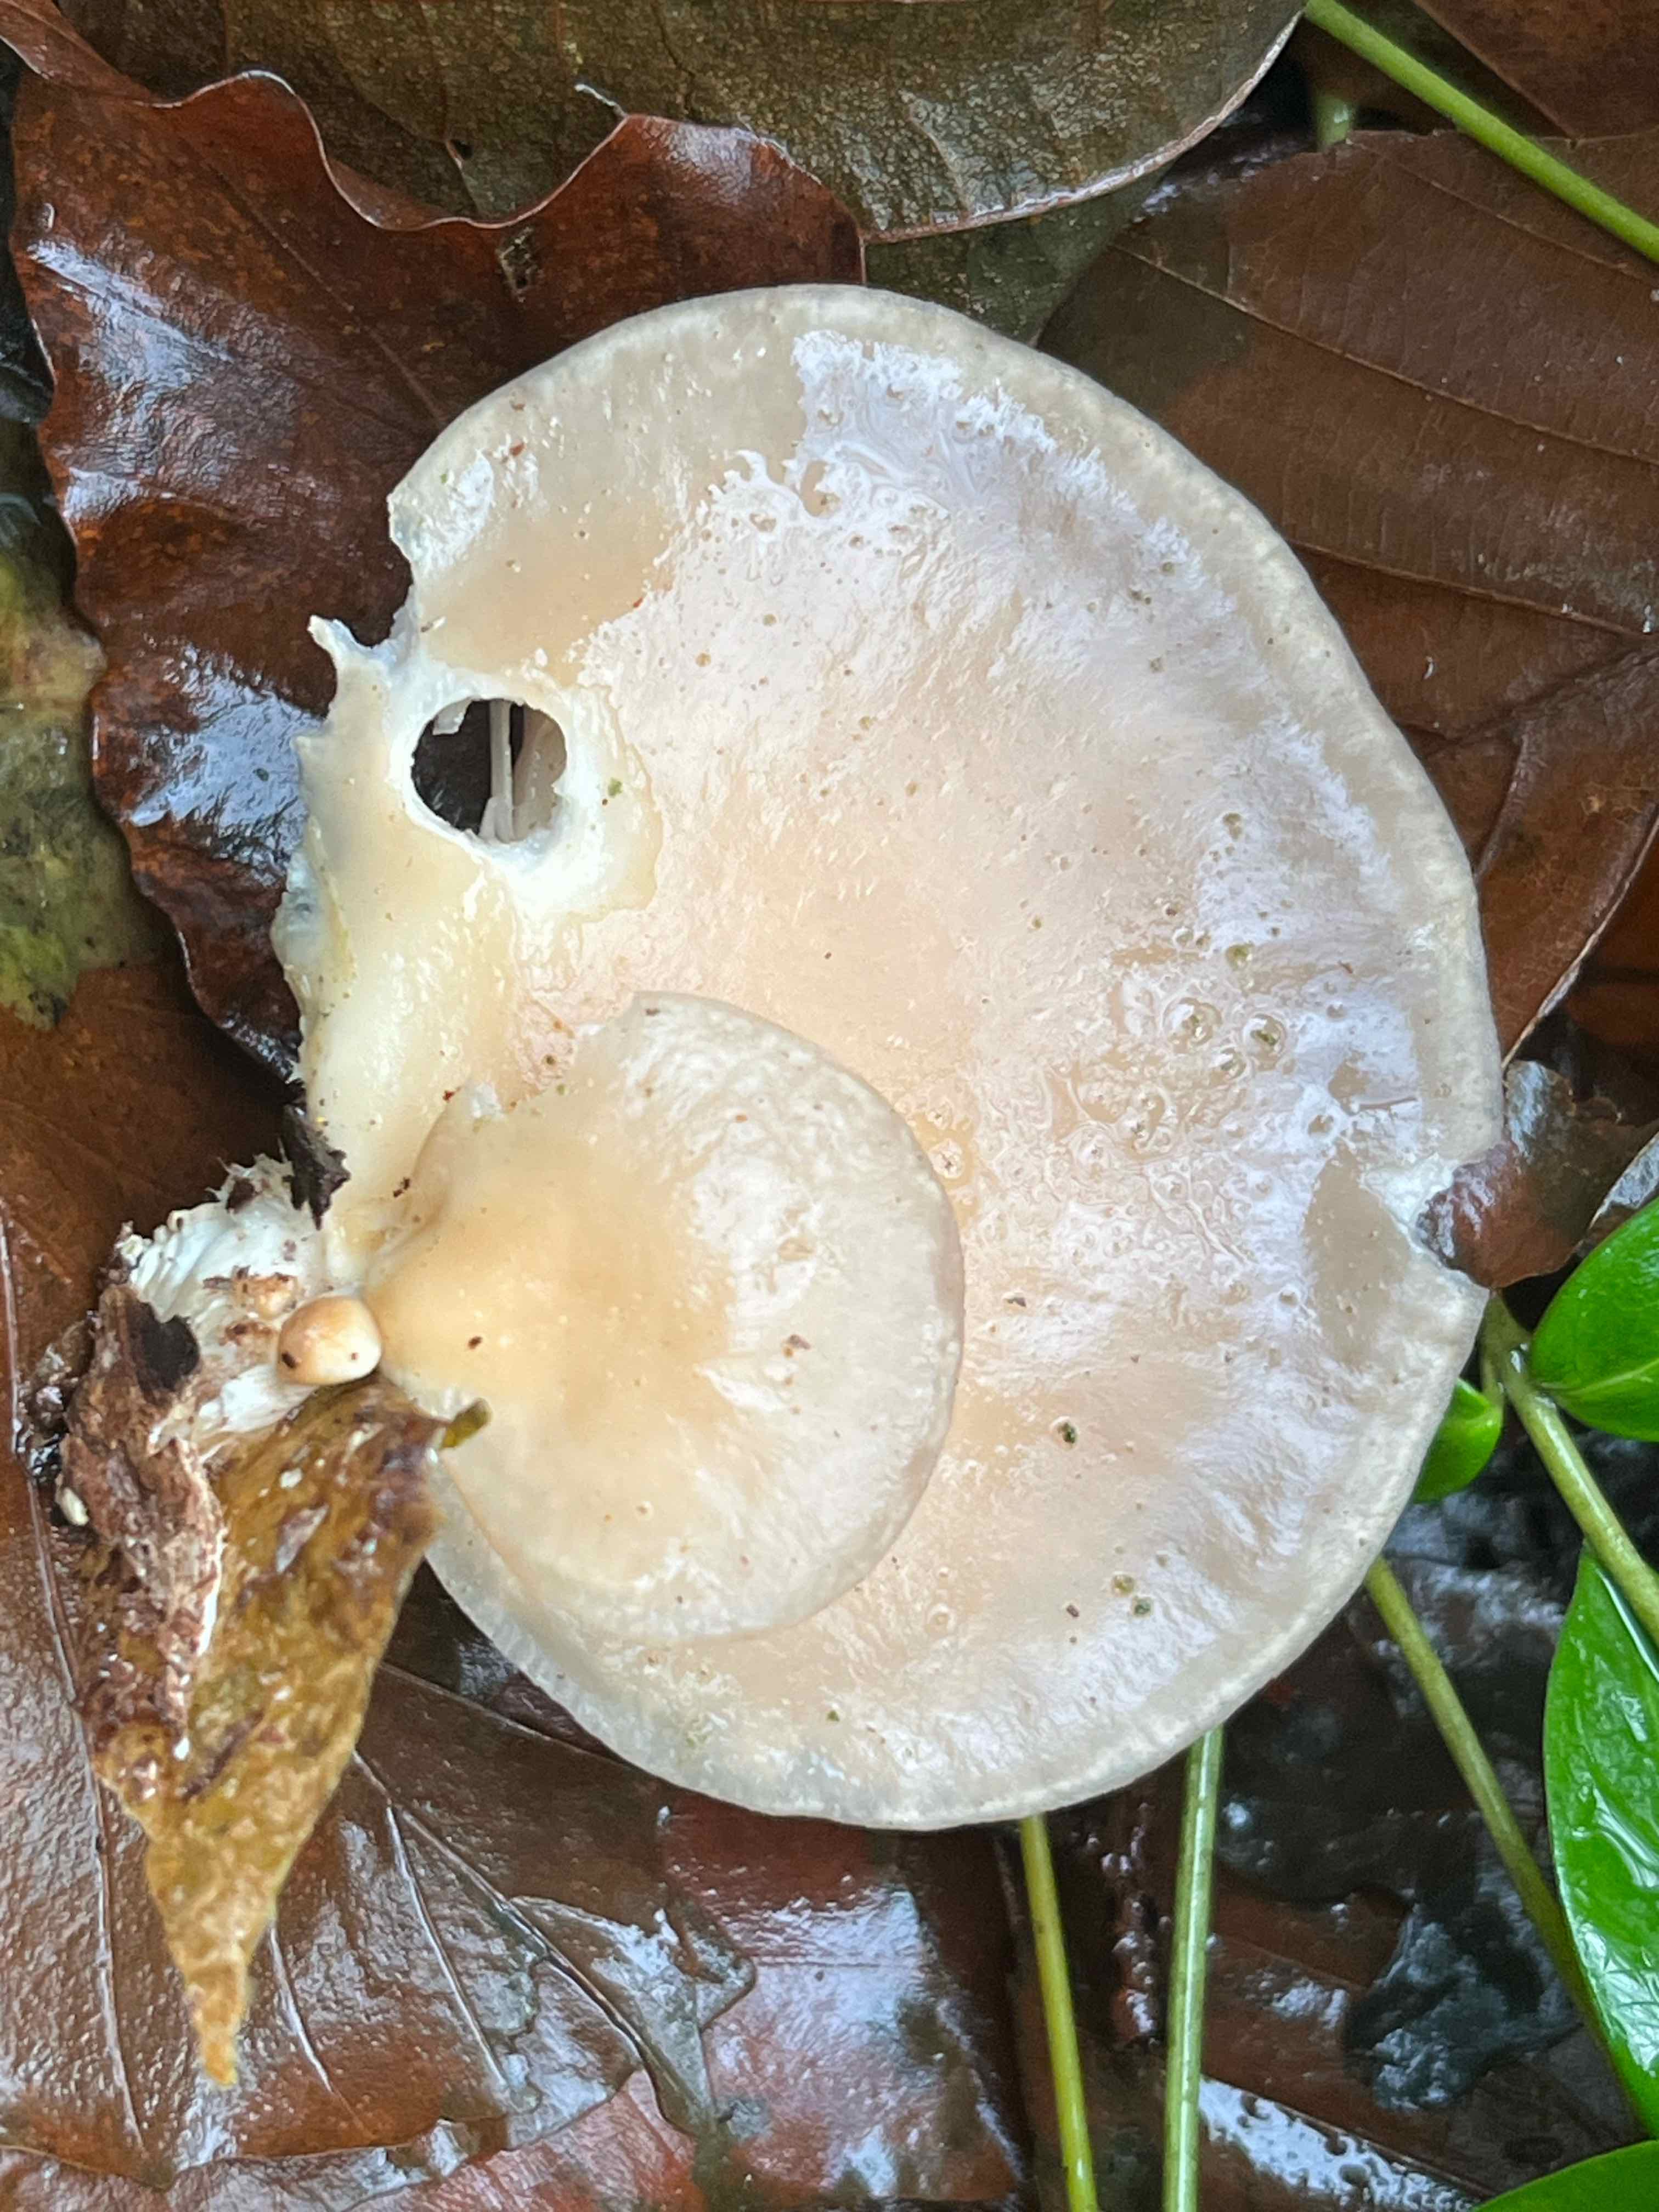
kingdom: Fungi
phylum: Basidiomycota
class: Agaricomycetes
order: Agaricales
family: Pleurotaceae
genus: Pleurotus
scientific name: Pleurotus ostreatus
